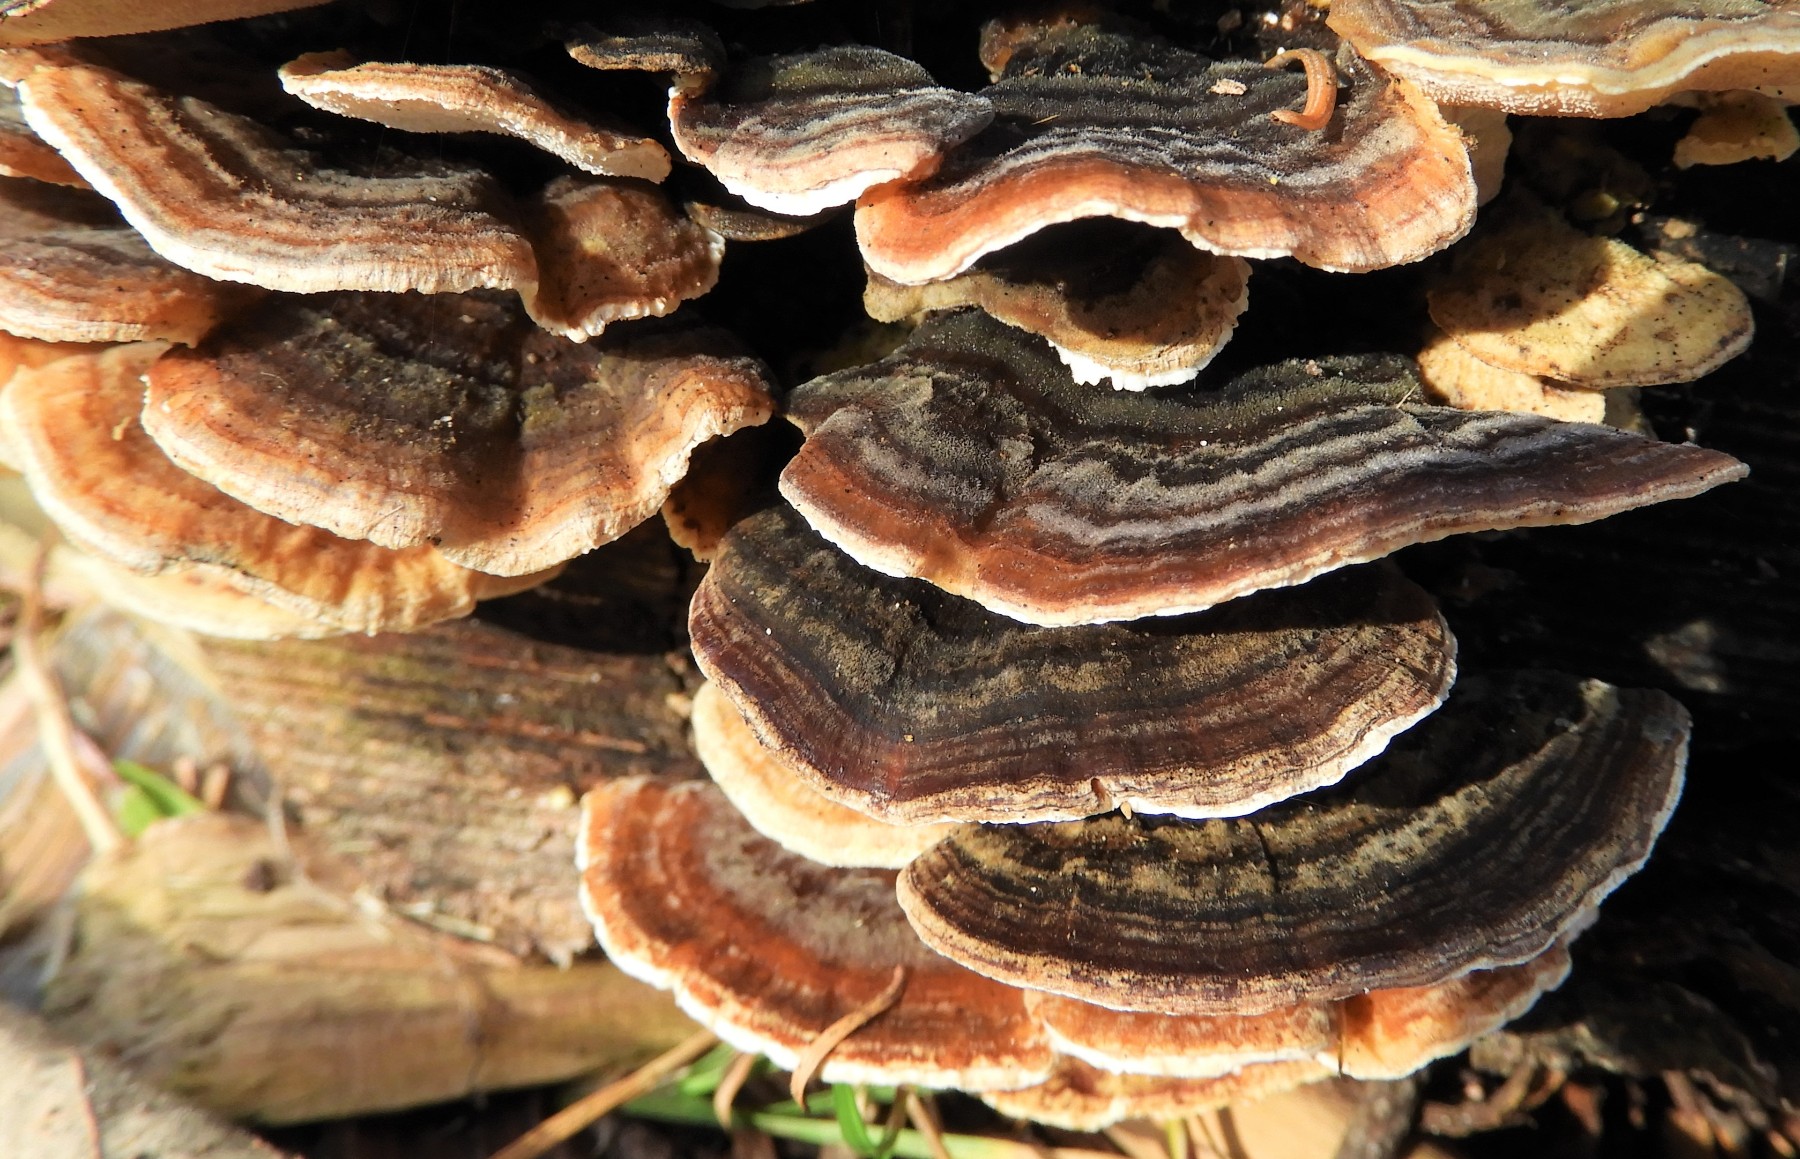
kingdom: Fungi
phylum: Basidiomycota
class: Agaricomycetes
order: Polyporales
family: Polyporaceae
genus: Trametes
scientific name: Trametes versicolor
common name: broget læderporesvamp
